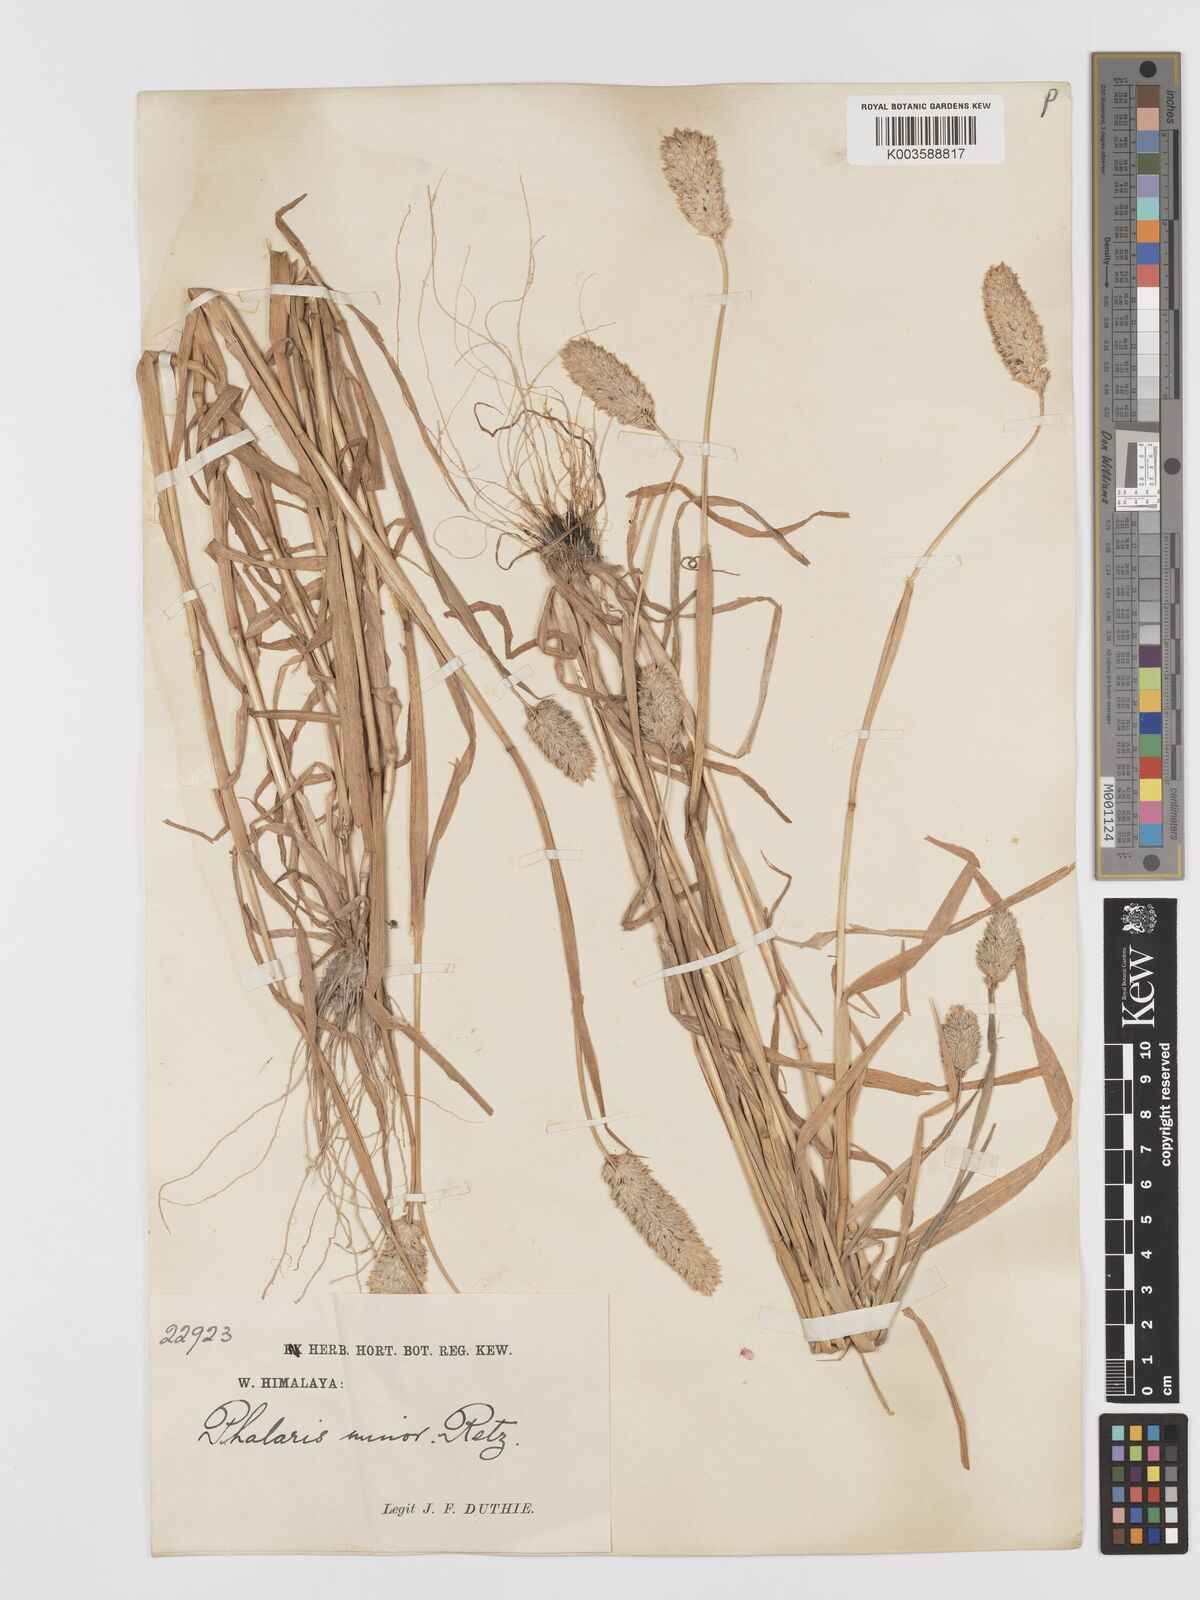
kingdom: Plantae
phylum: Tracheophyta
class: Liliopsida
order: Poales
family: Poaceae
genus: Phalaris
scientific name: Phalaris minor
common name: Littleseed canarygrass
